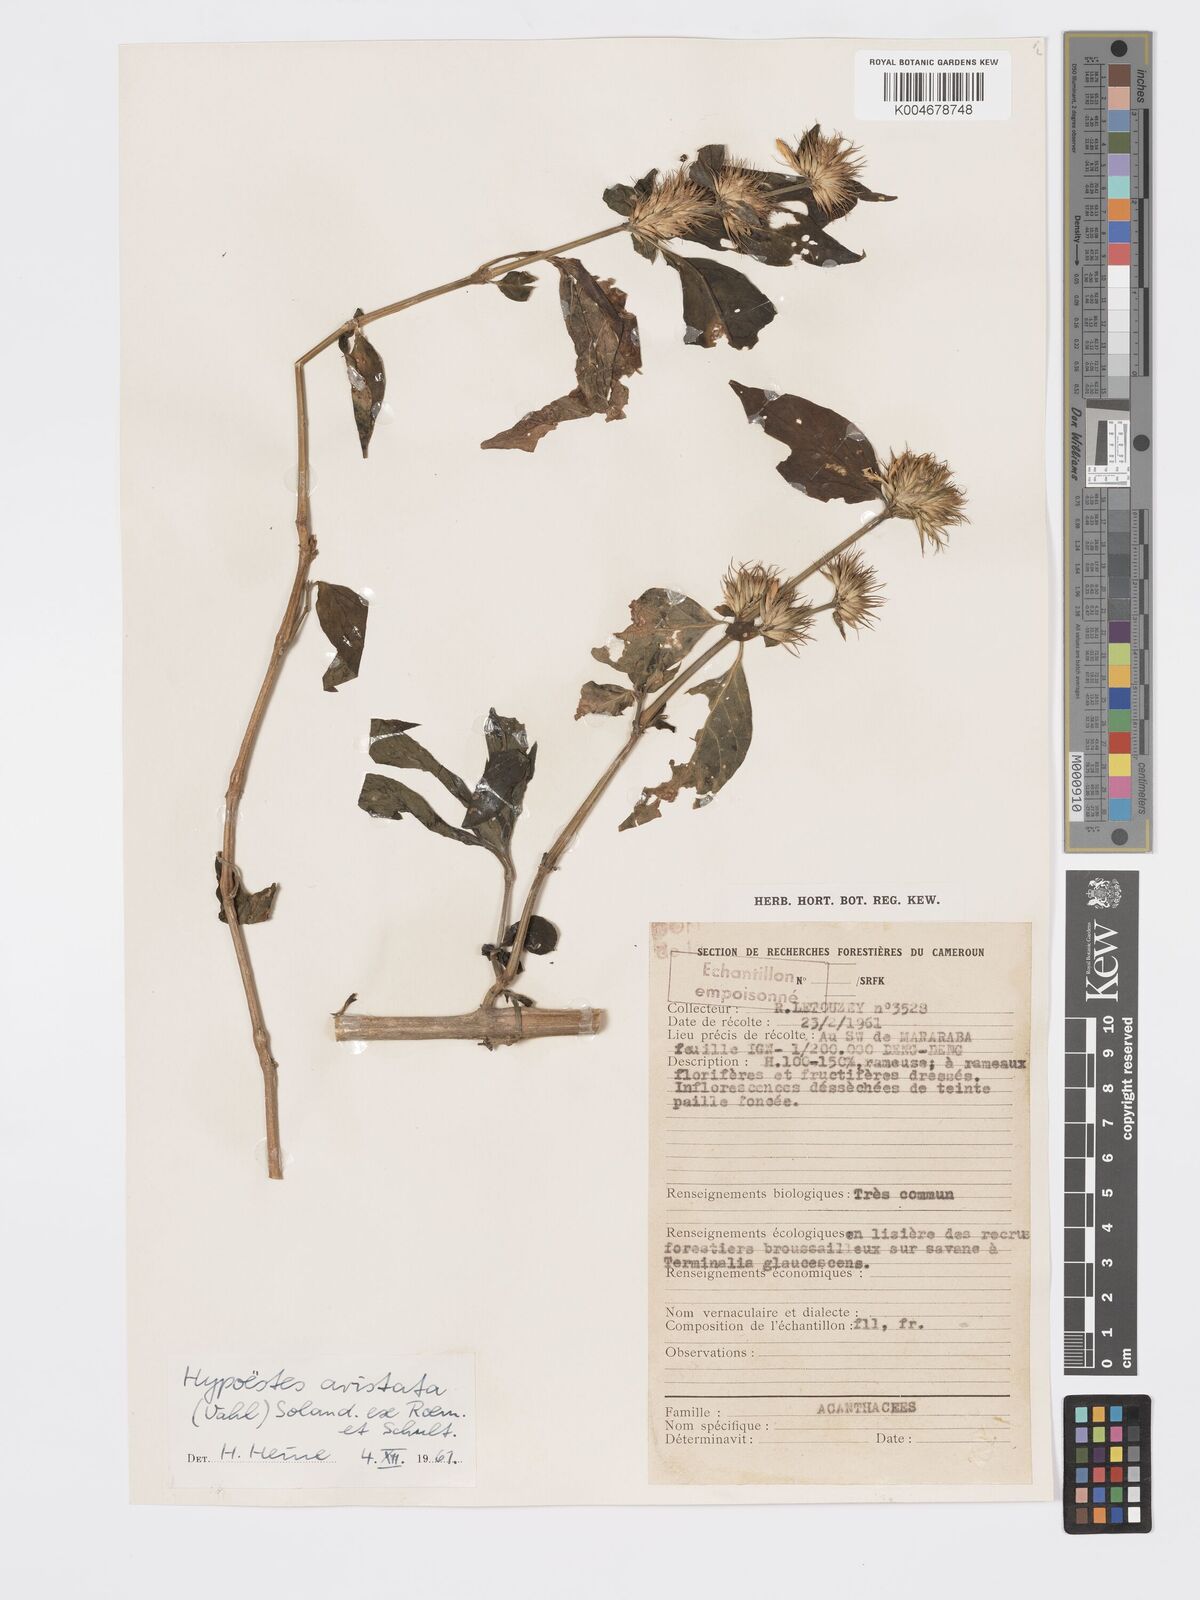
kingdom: Plantae
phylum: Tracheophyta
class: Magnoliopsida
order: Lamiales
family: Acanthaceae
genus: Hypoestes
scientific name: Hypoestes aristata
